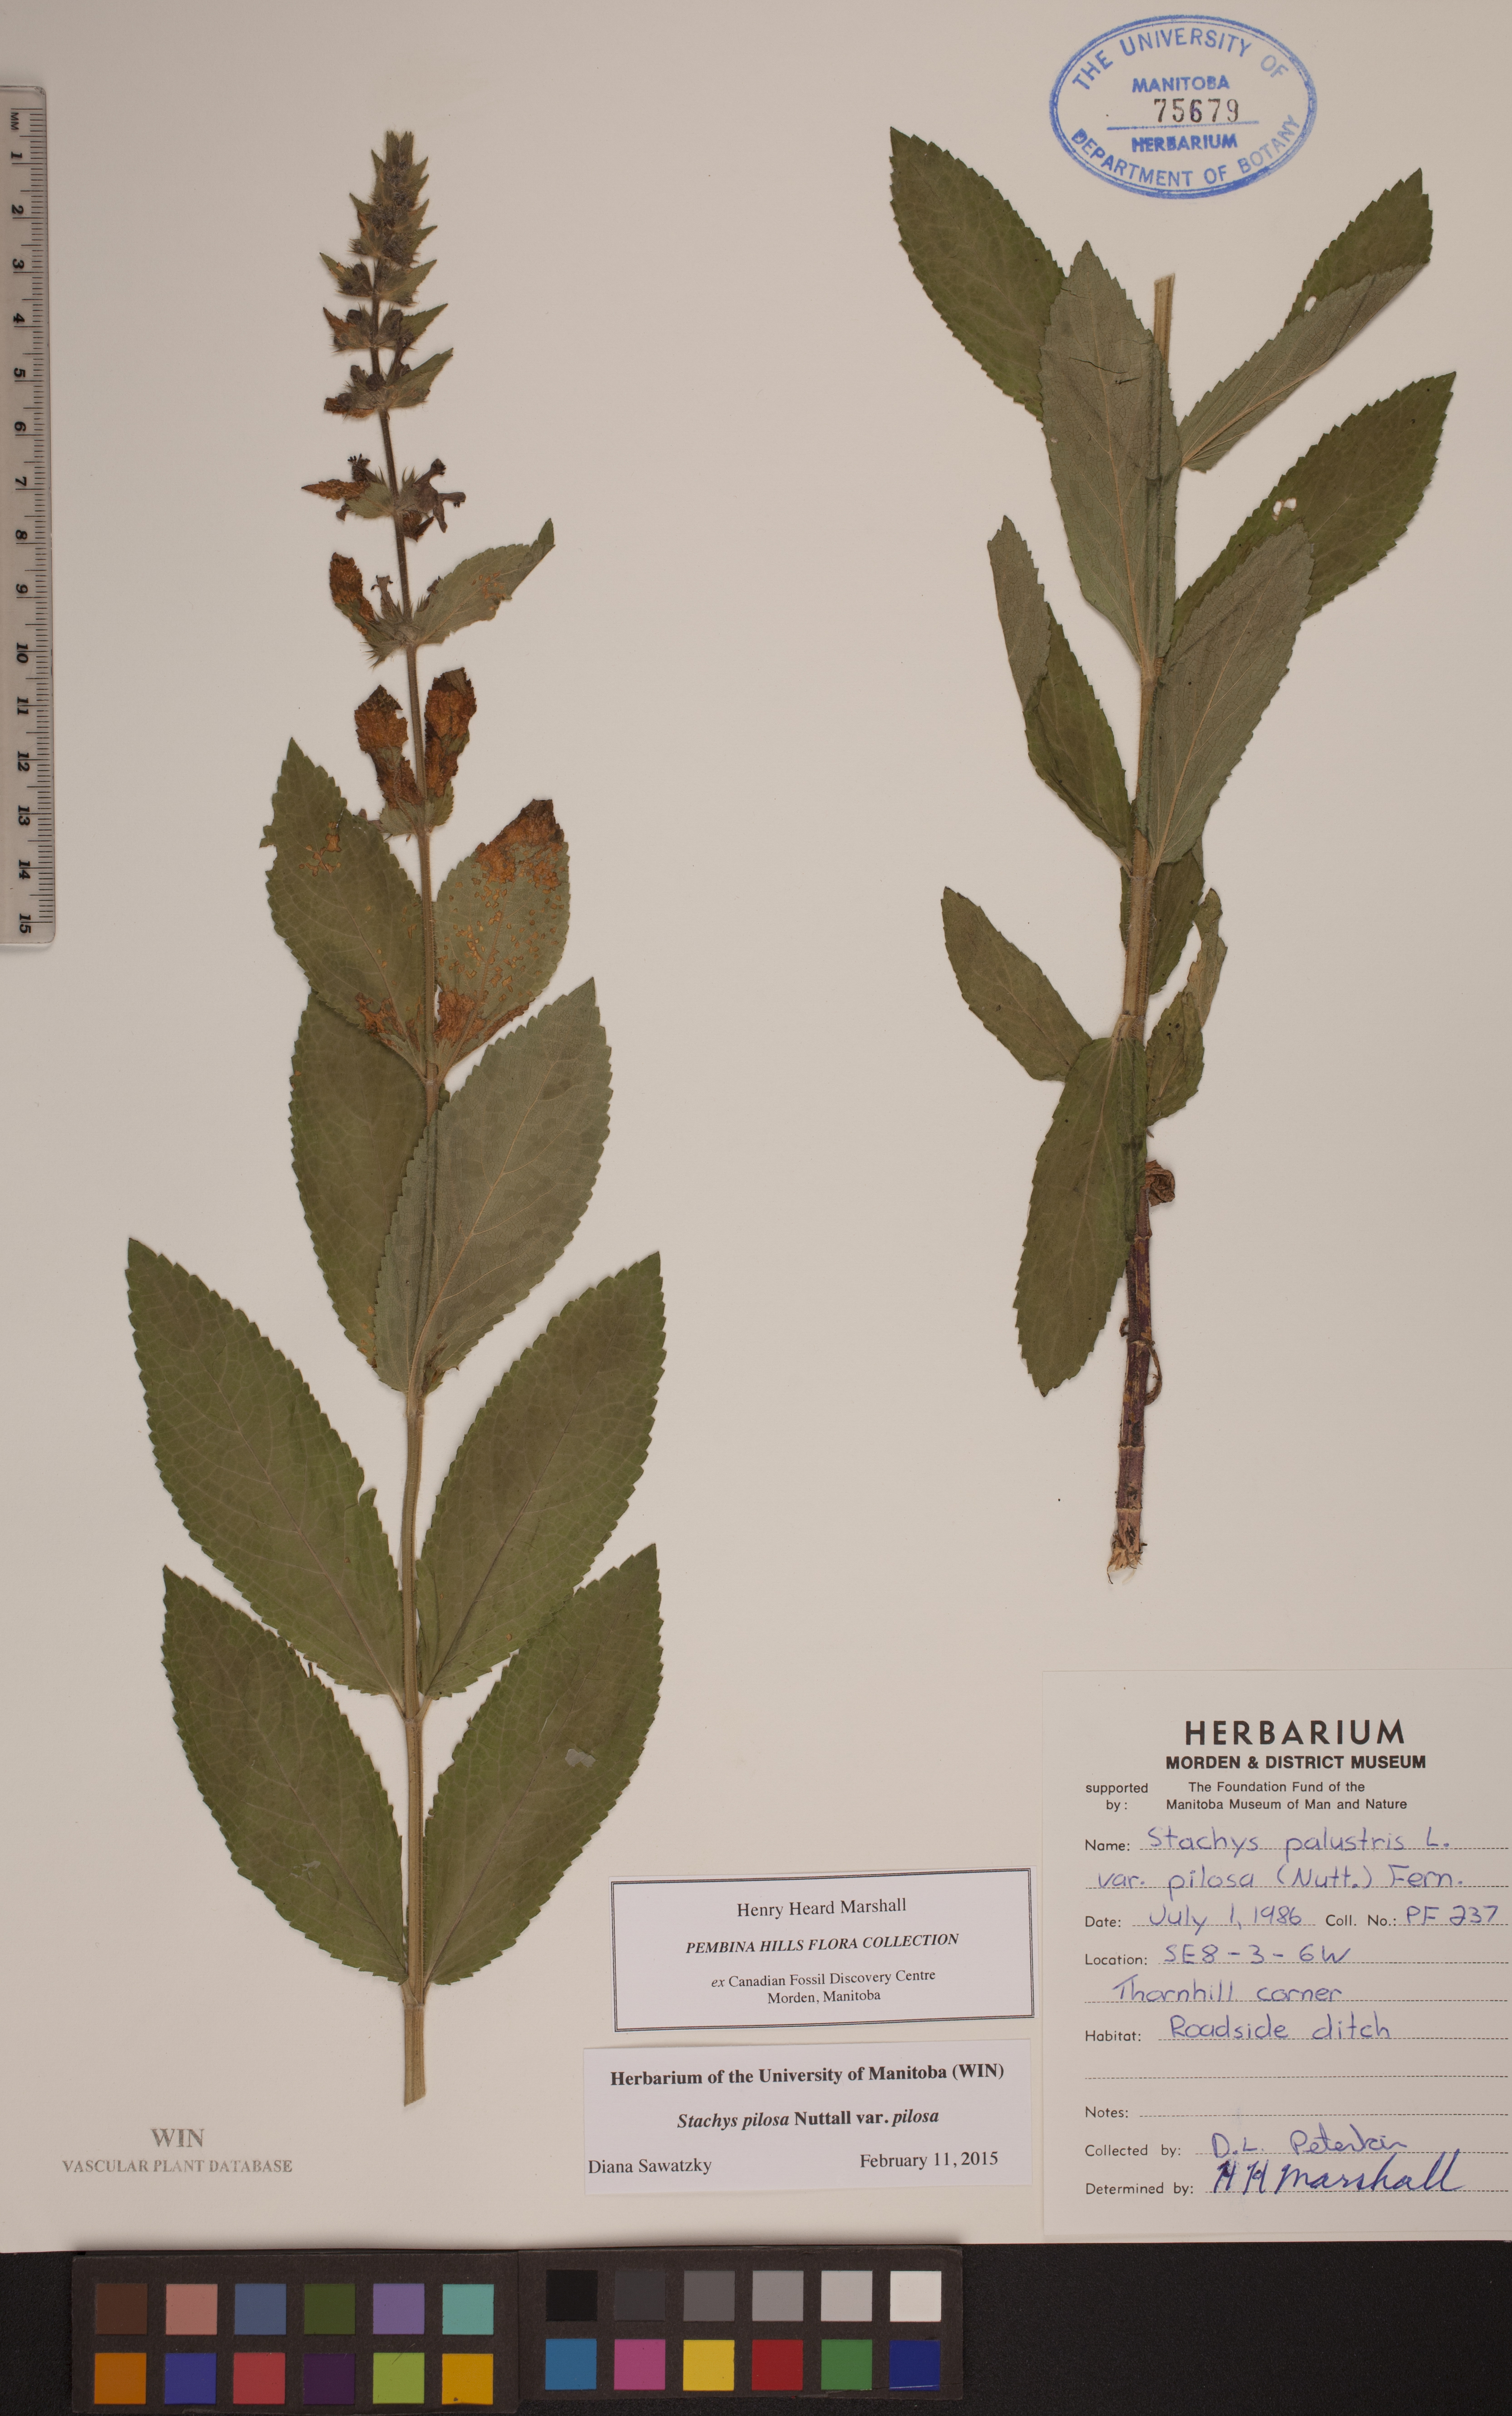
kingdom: Plantae
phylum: Tracheophyta
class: Magnoliopsida
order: Lamiales
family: Lamiaceae
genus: Stachys
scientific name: Stachys pilosa
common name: Hairy hedge-nettle
